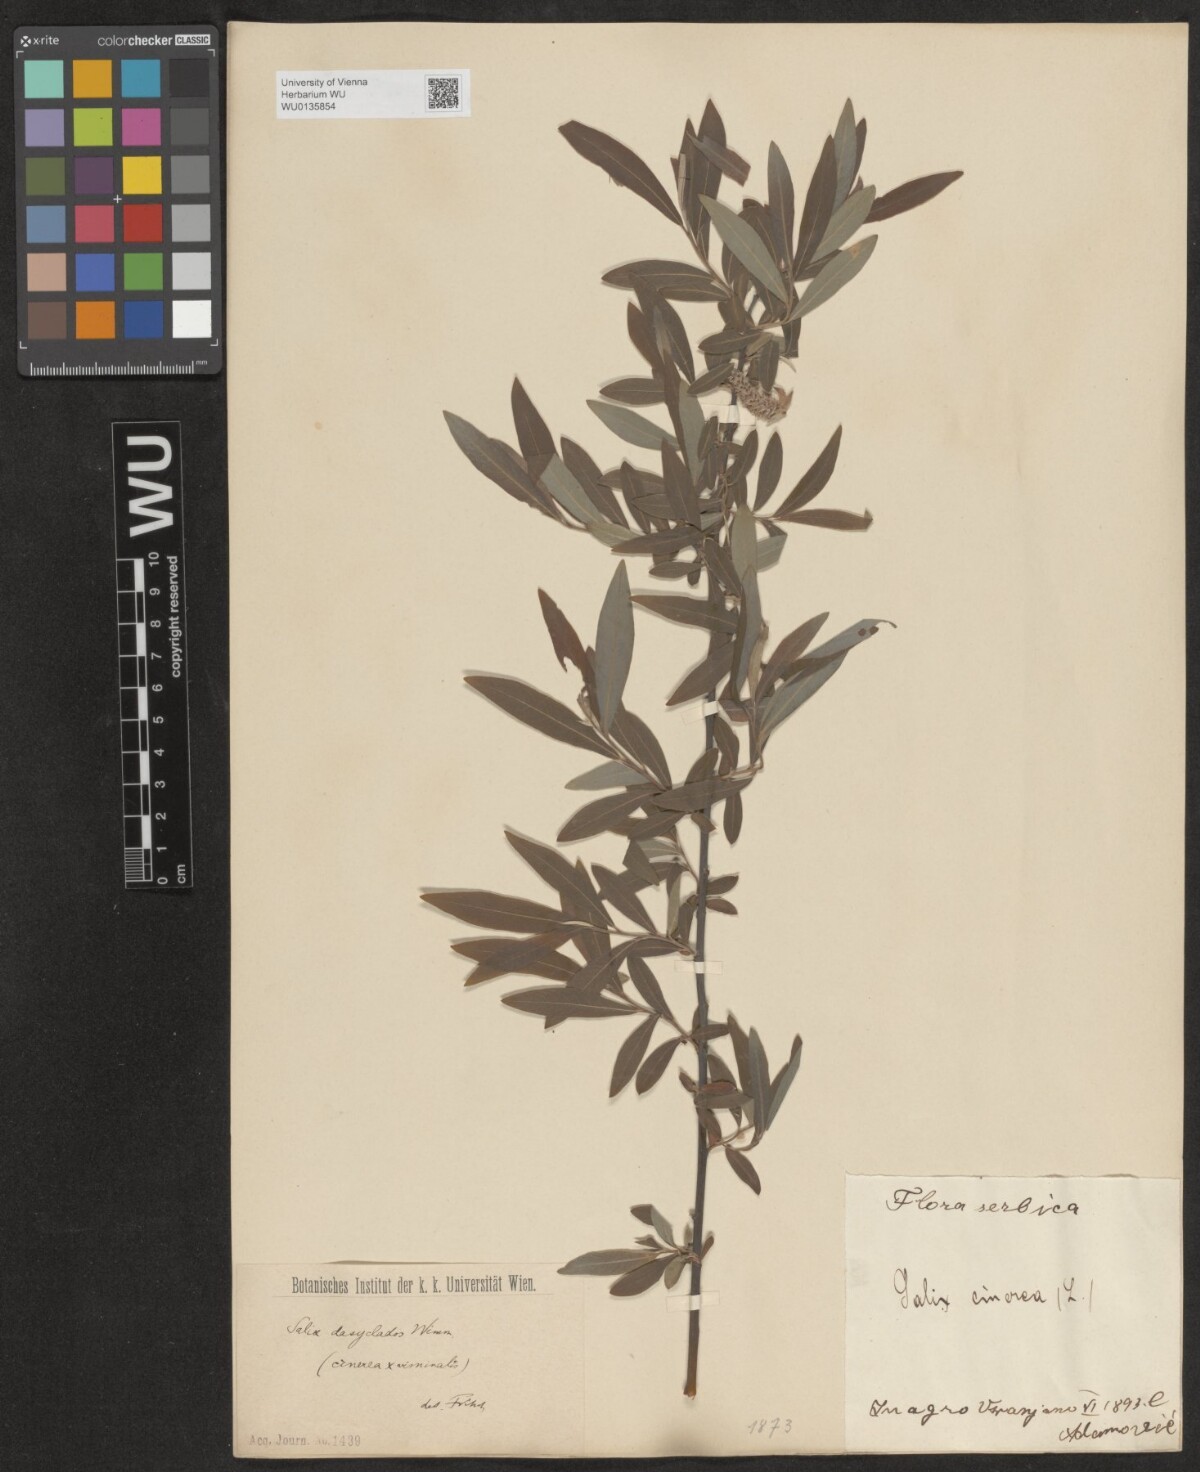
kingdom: Plantae
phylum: Tracheophyta
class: Magnoliopsida
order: Malpighiales
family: Salicaceae
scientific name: Salicaceae
